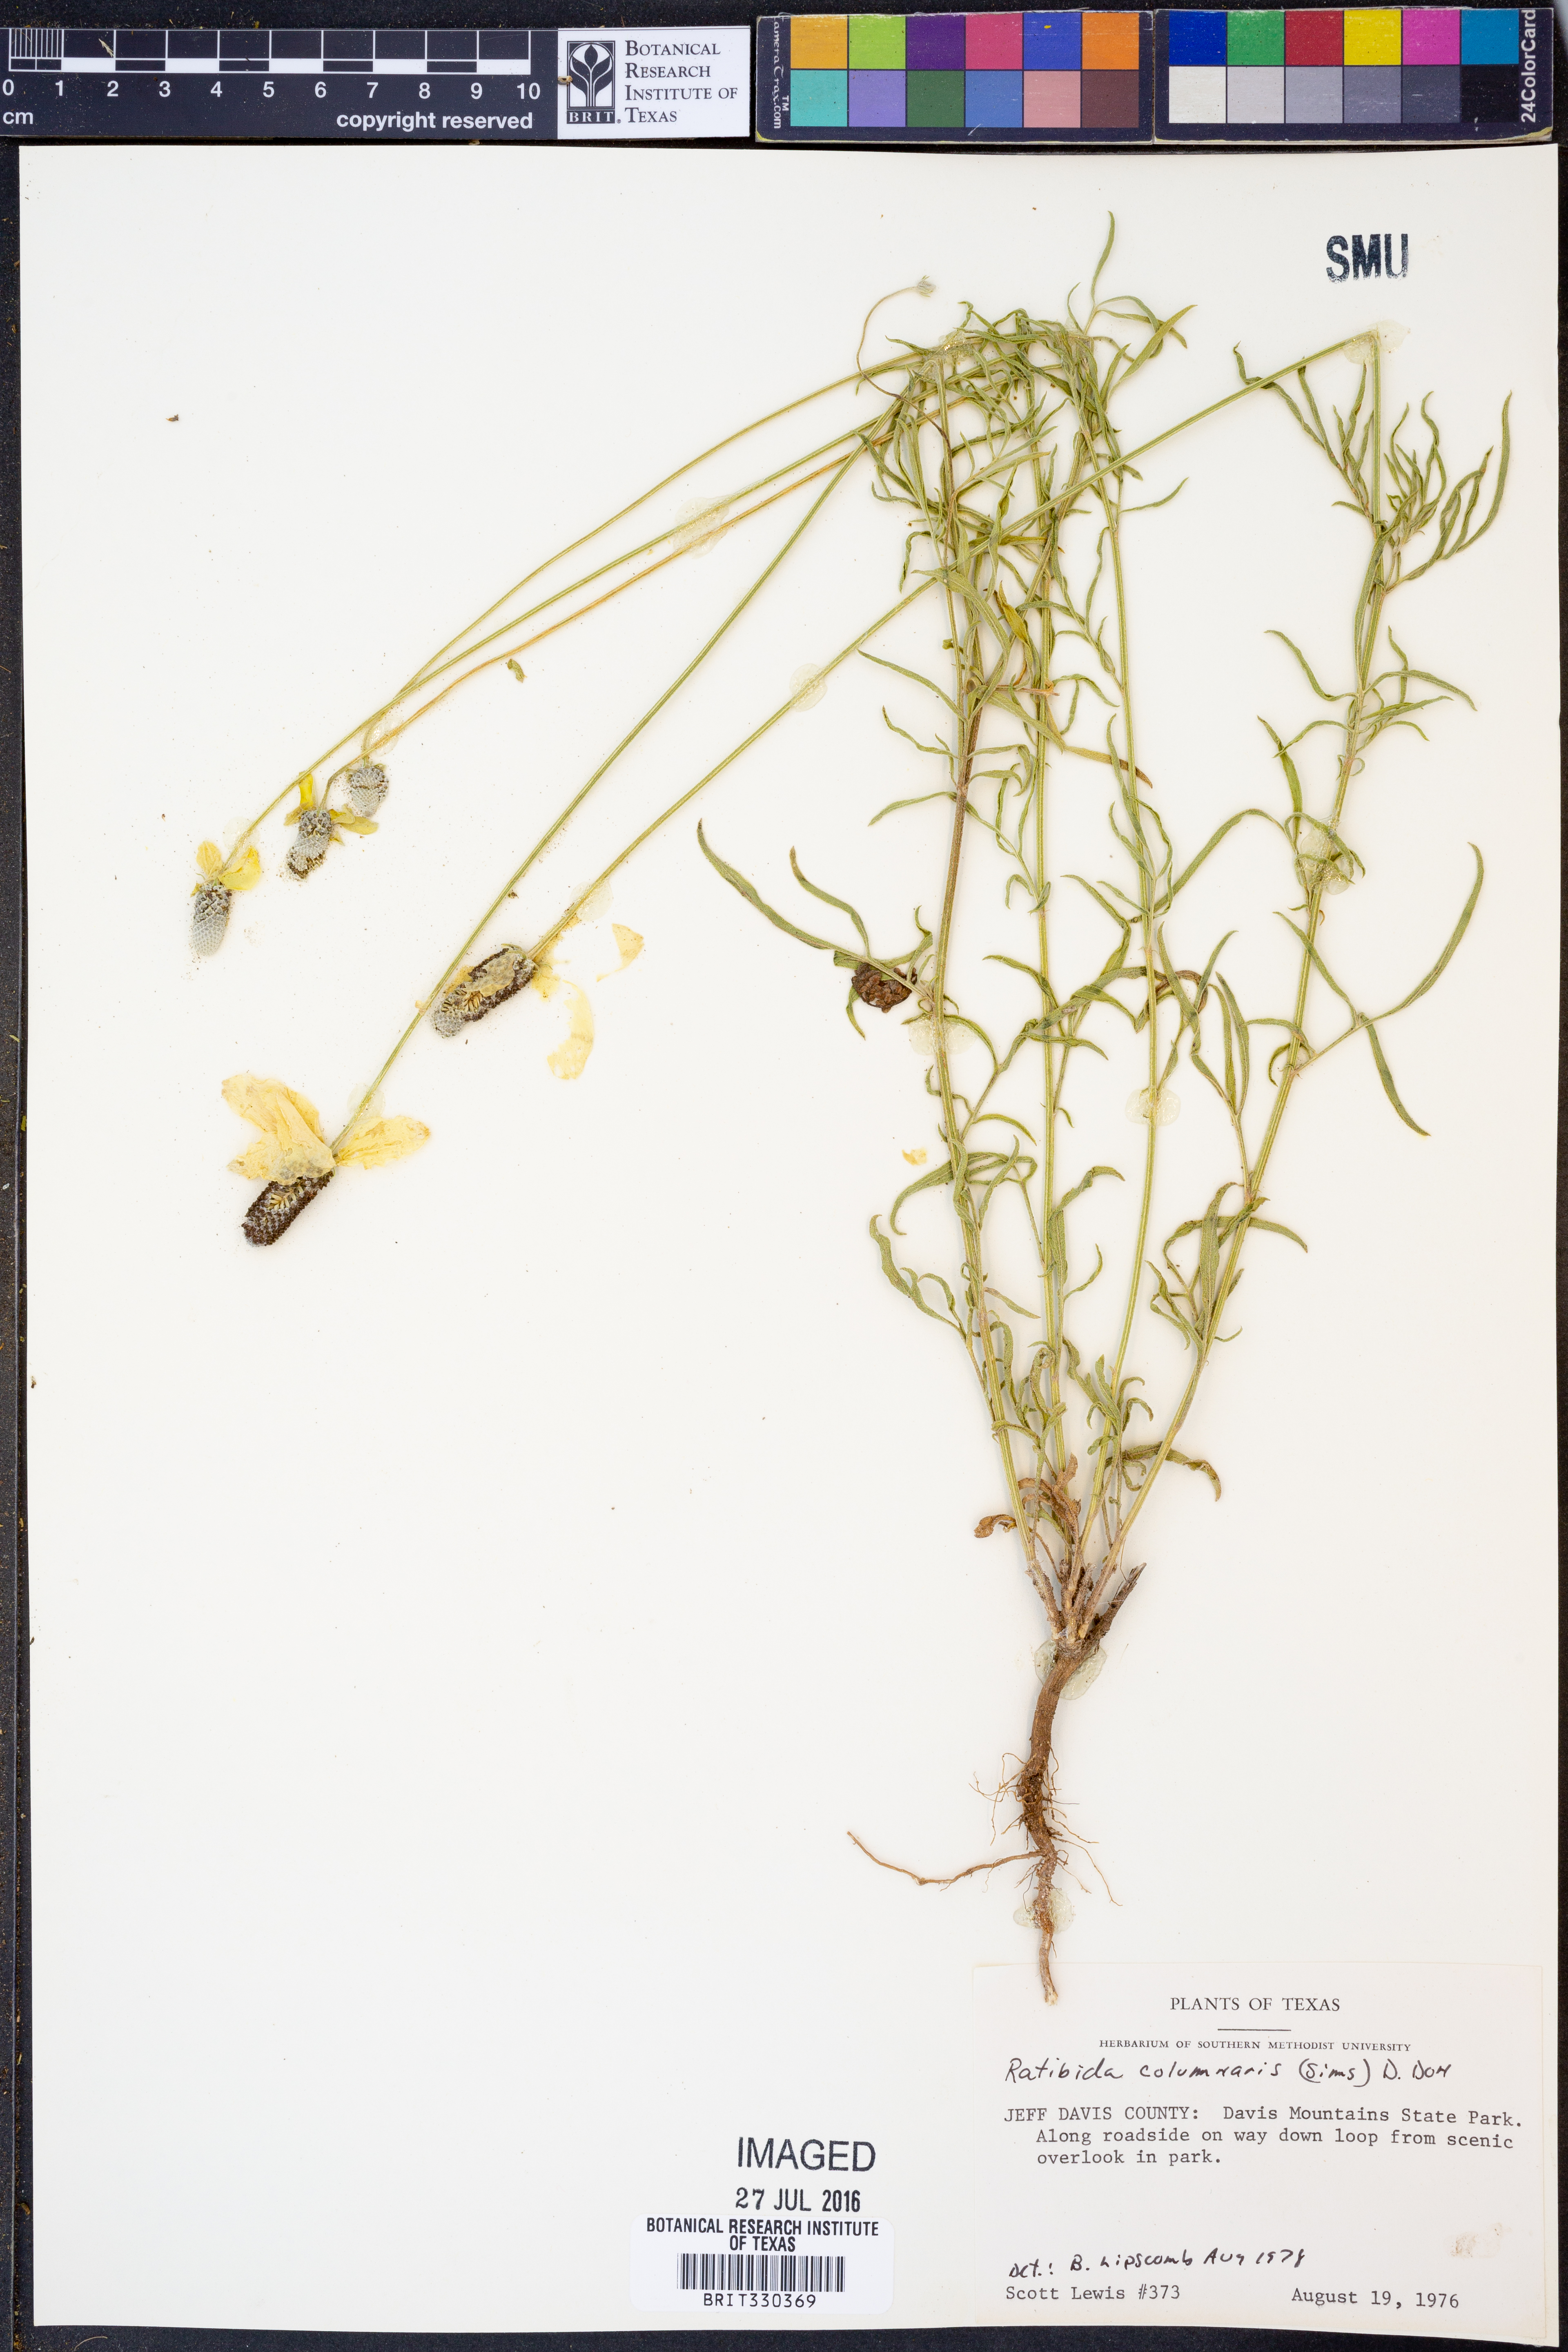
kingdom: Plantae
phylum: Tracheophyta
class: Magnoliopsida
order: Asterales
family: Asteraceae
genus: Ratibida
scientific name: Ratibida columnifera
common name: Prairie coneflower
